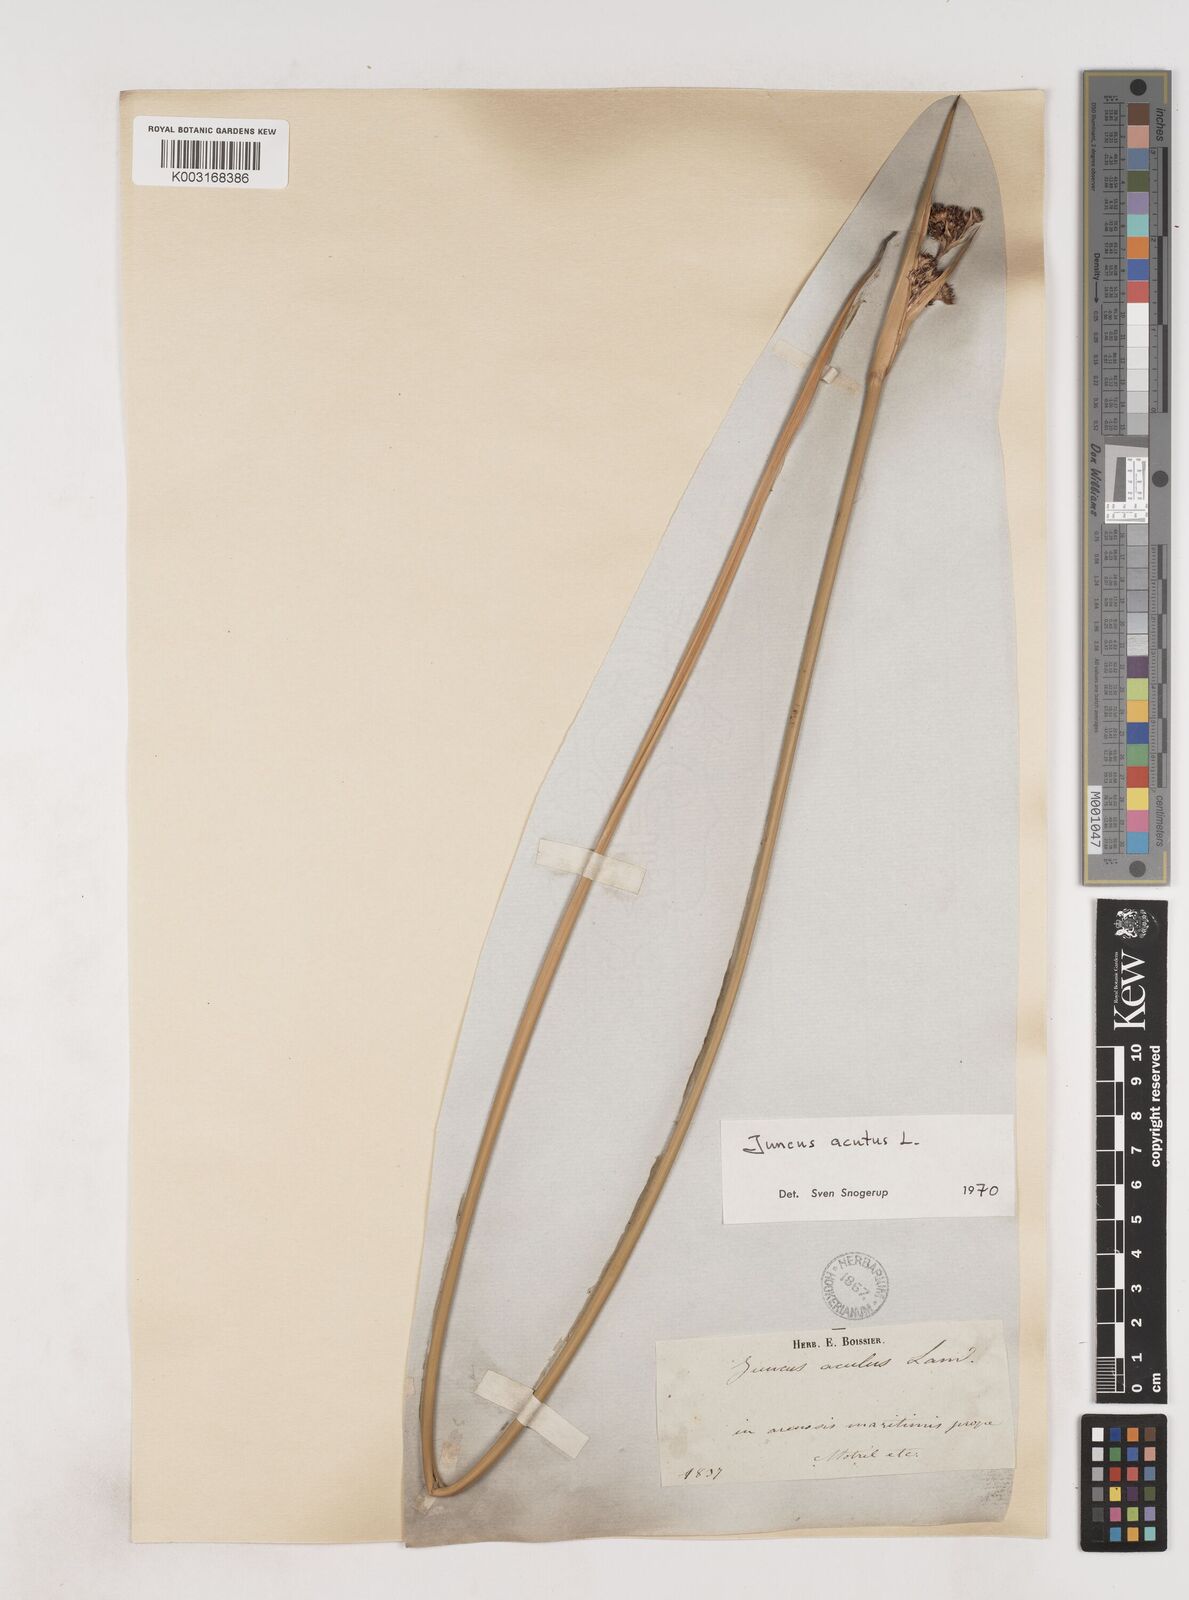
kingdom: Plantae
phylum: Tracheophyta
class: Liliopsida
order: Poales
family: Juncaceae
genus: Juncus
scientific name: Juncus acutus
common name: Sharp rush
